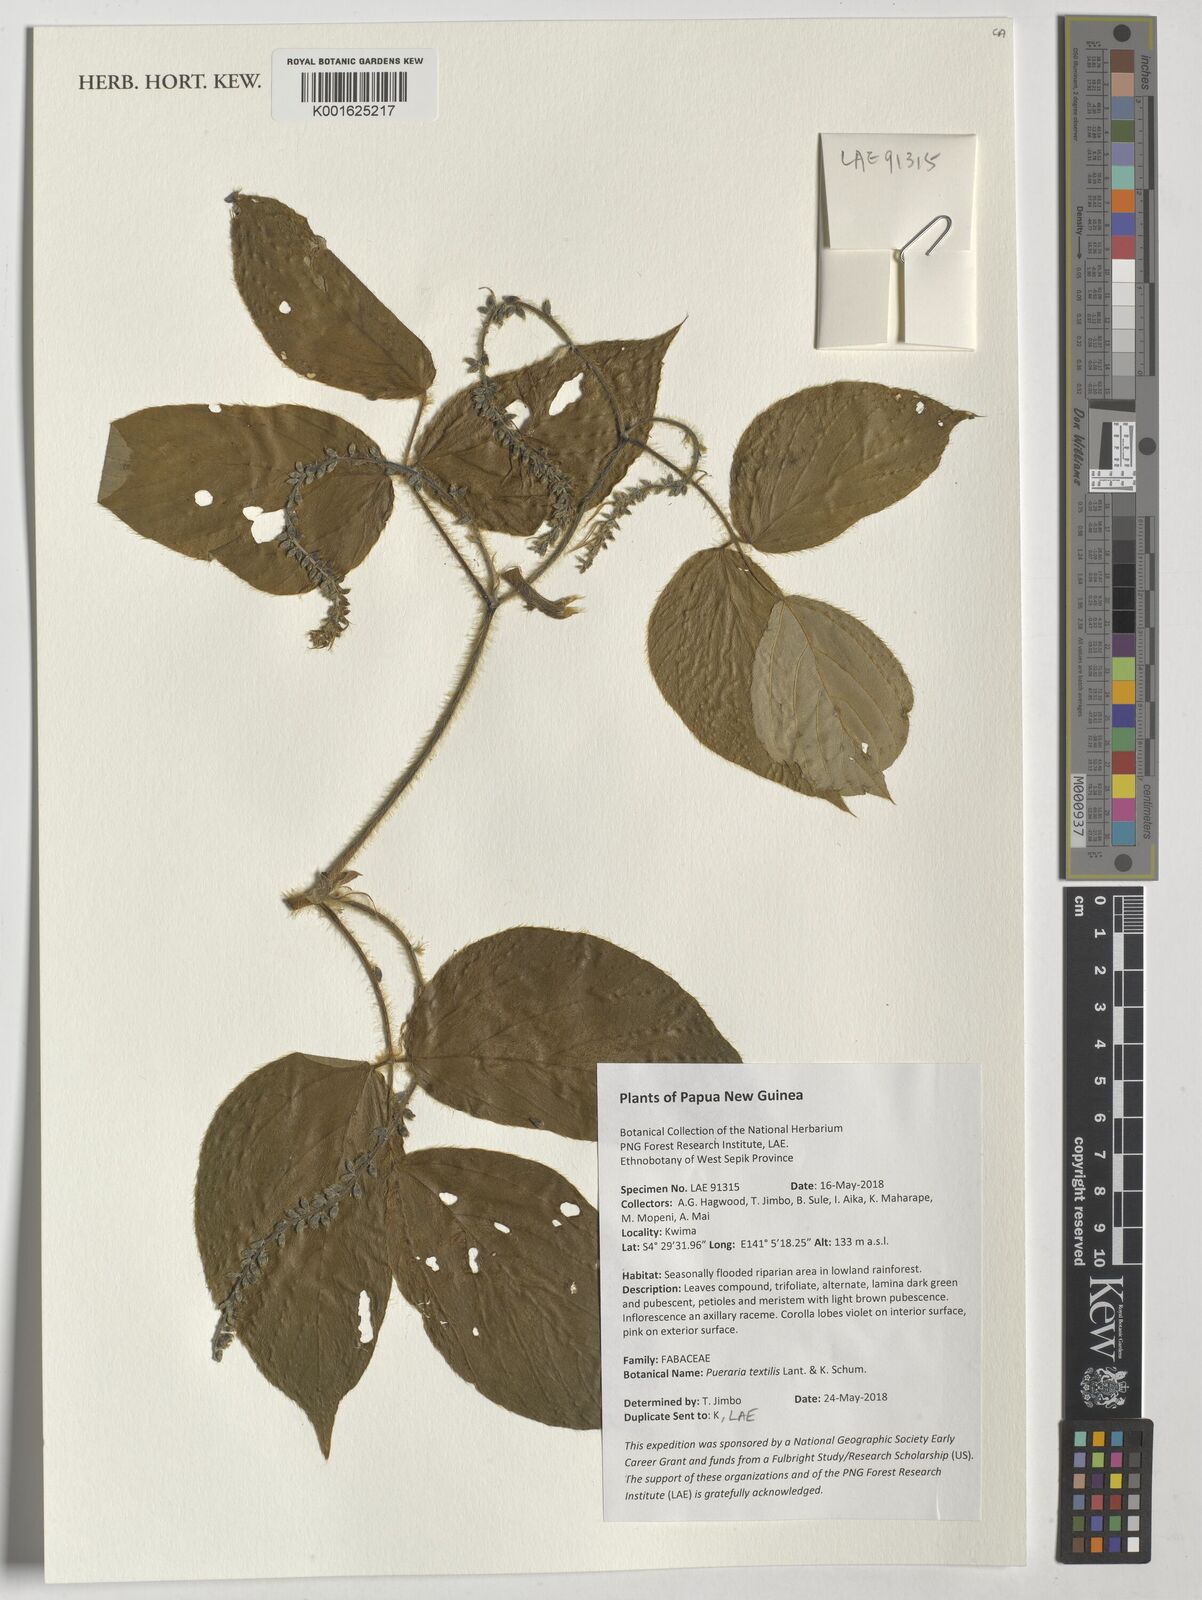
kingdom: Plantae
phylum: Tracheophyta
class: Magnoliopsida
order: Fabales
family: Fabaceae
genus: Pueraria
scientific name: Pueraria pulcherrima
